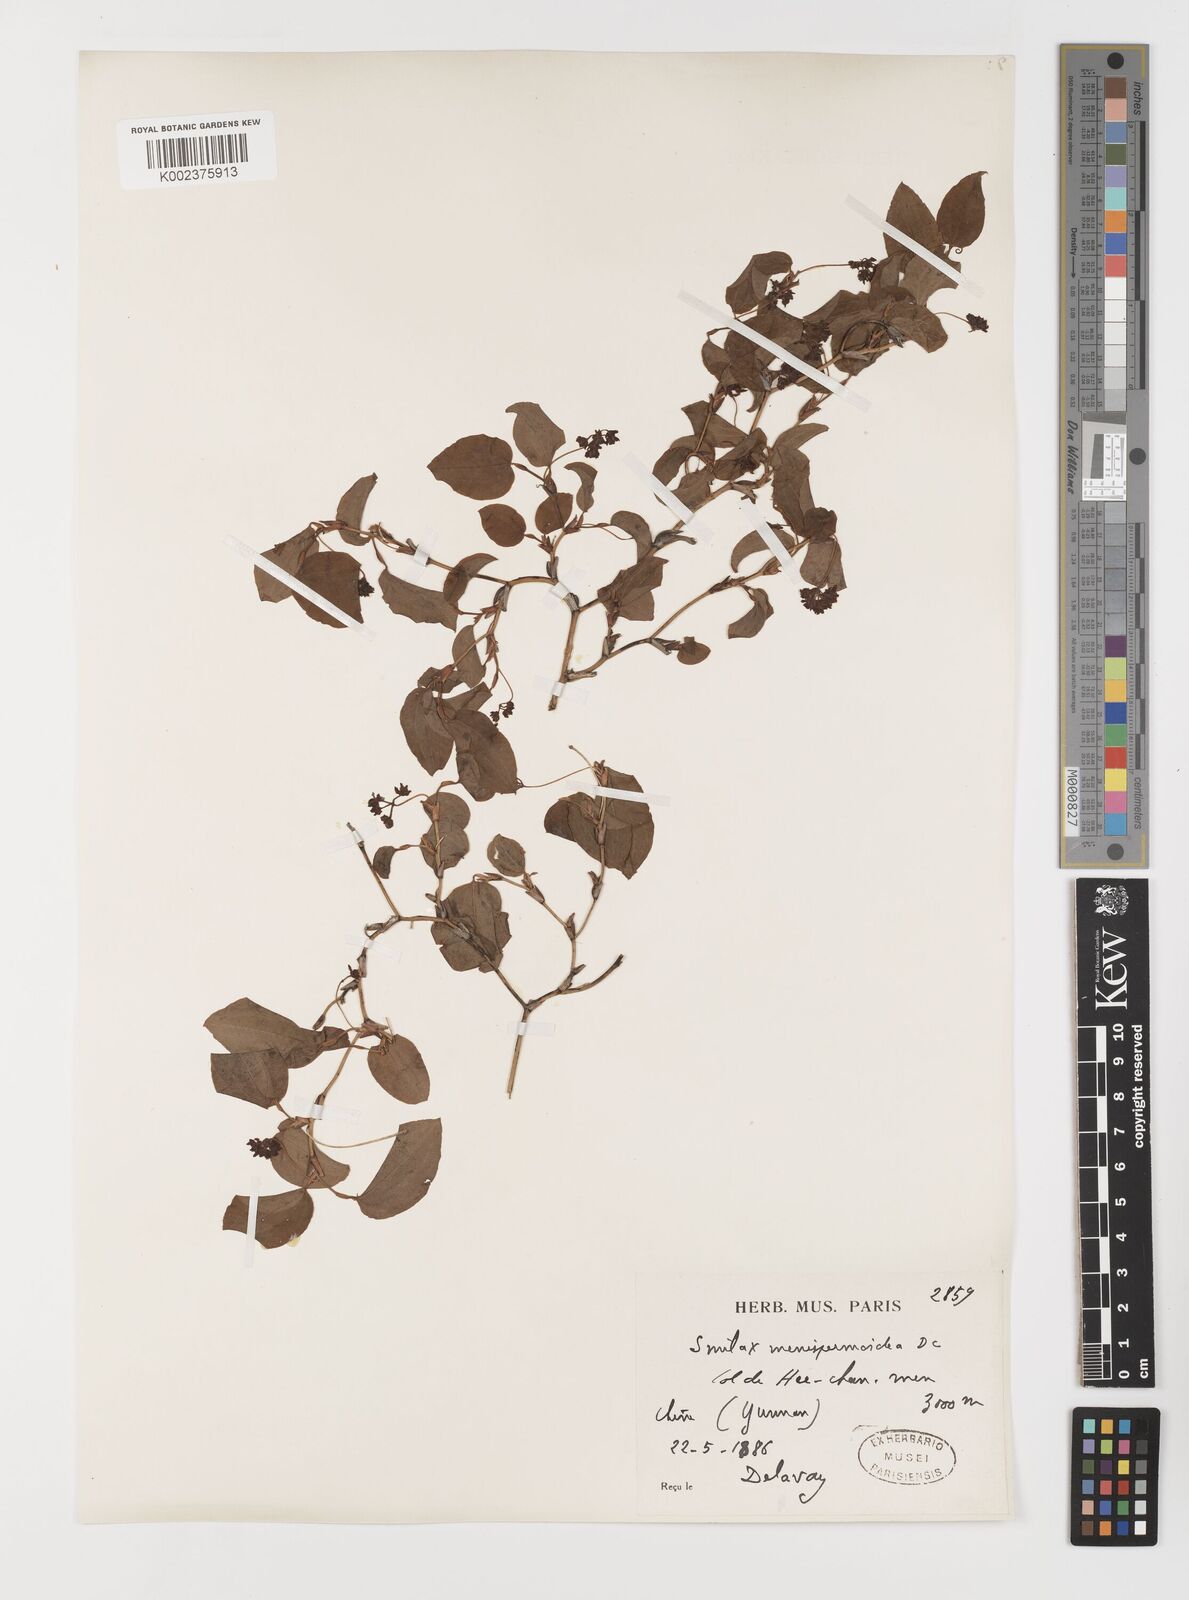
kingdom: Plantae
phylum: Tracheophyta
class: Liliopsida
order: Liliales
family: Smilacaceae
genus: Smilax
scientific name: Smilax menispermoidea
